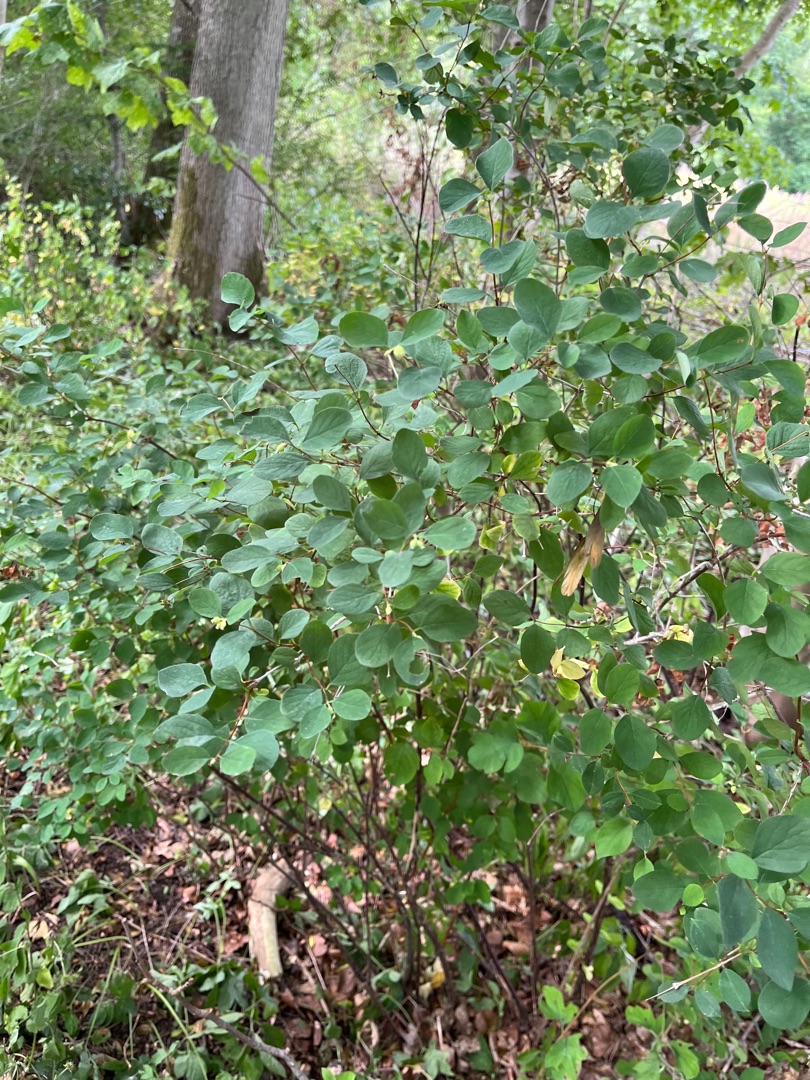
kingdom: Plantae
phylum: Tracheophyta
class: Magnoliopsida
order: Dipsacales
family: Caprifoliaceae
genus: Symphoricarpos
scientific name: Symphoricarpos albus
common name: Almindelig snebær
